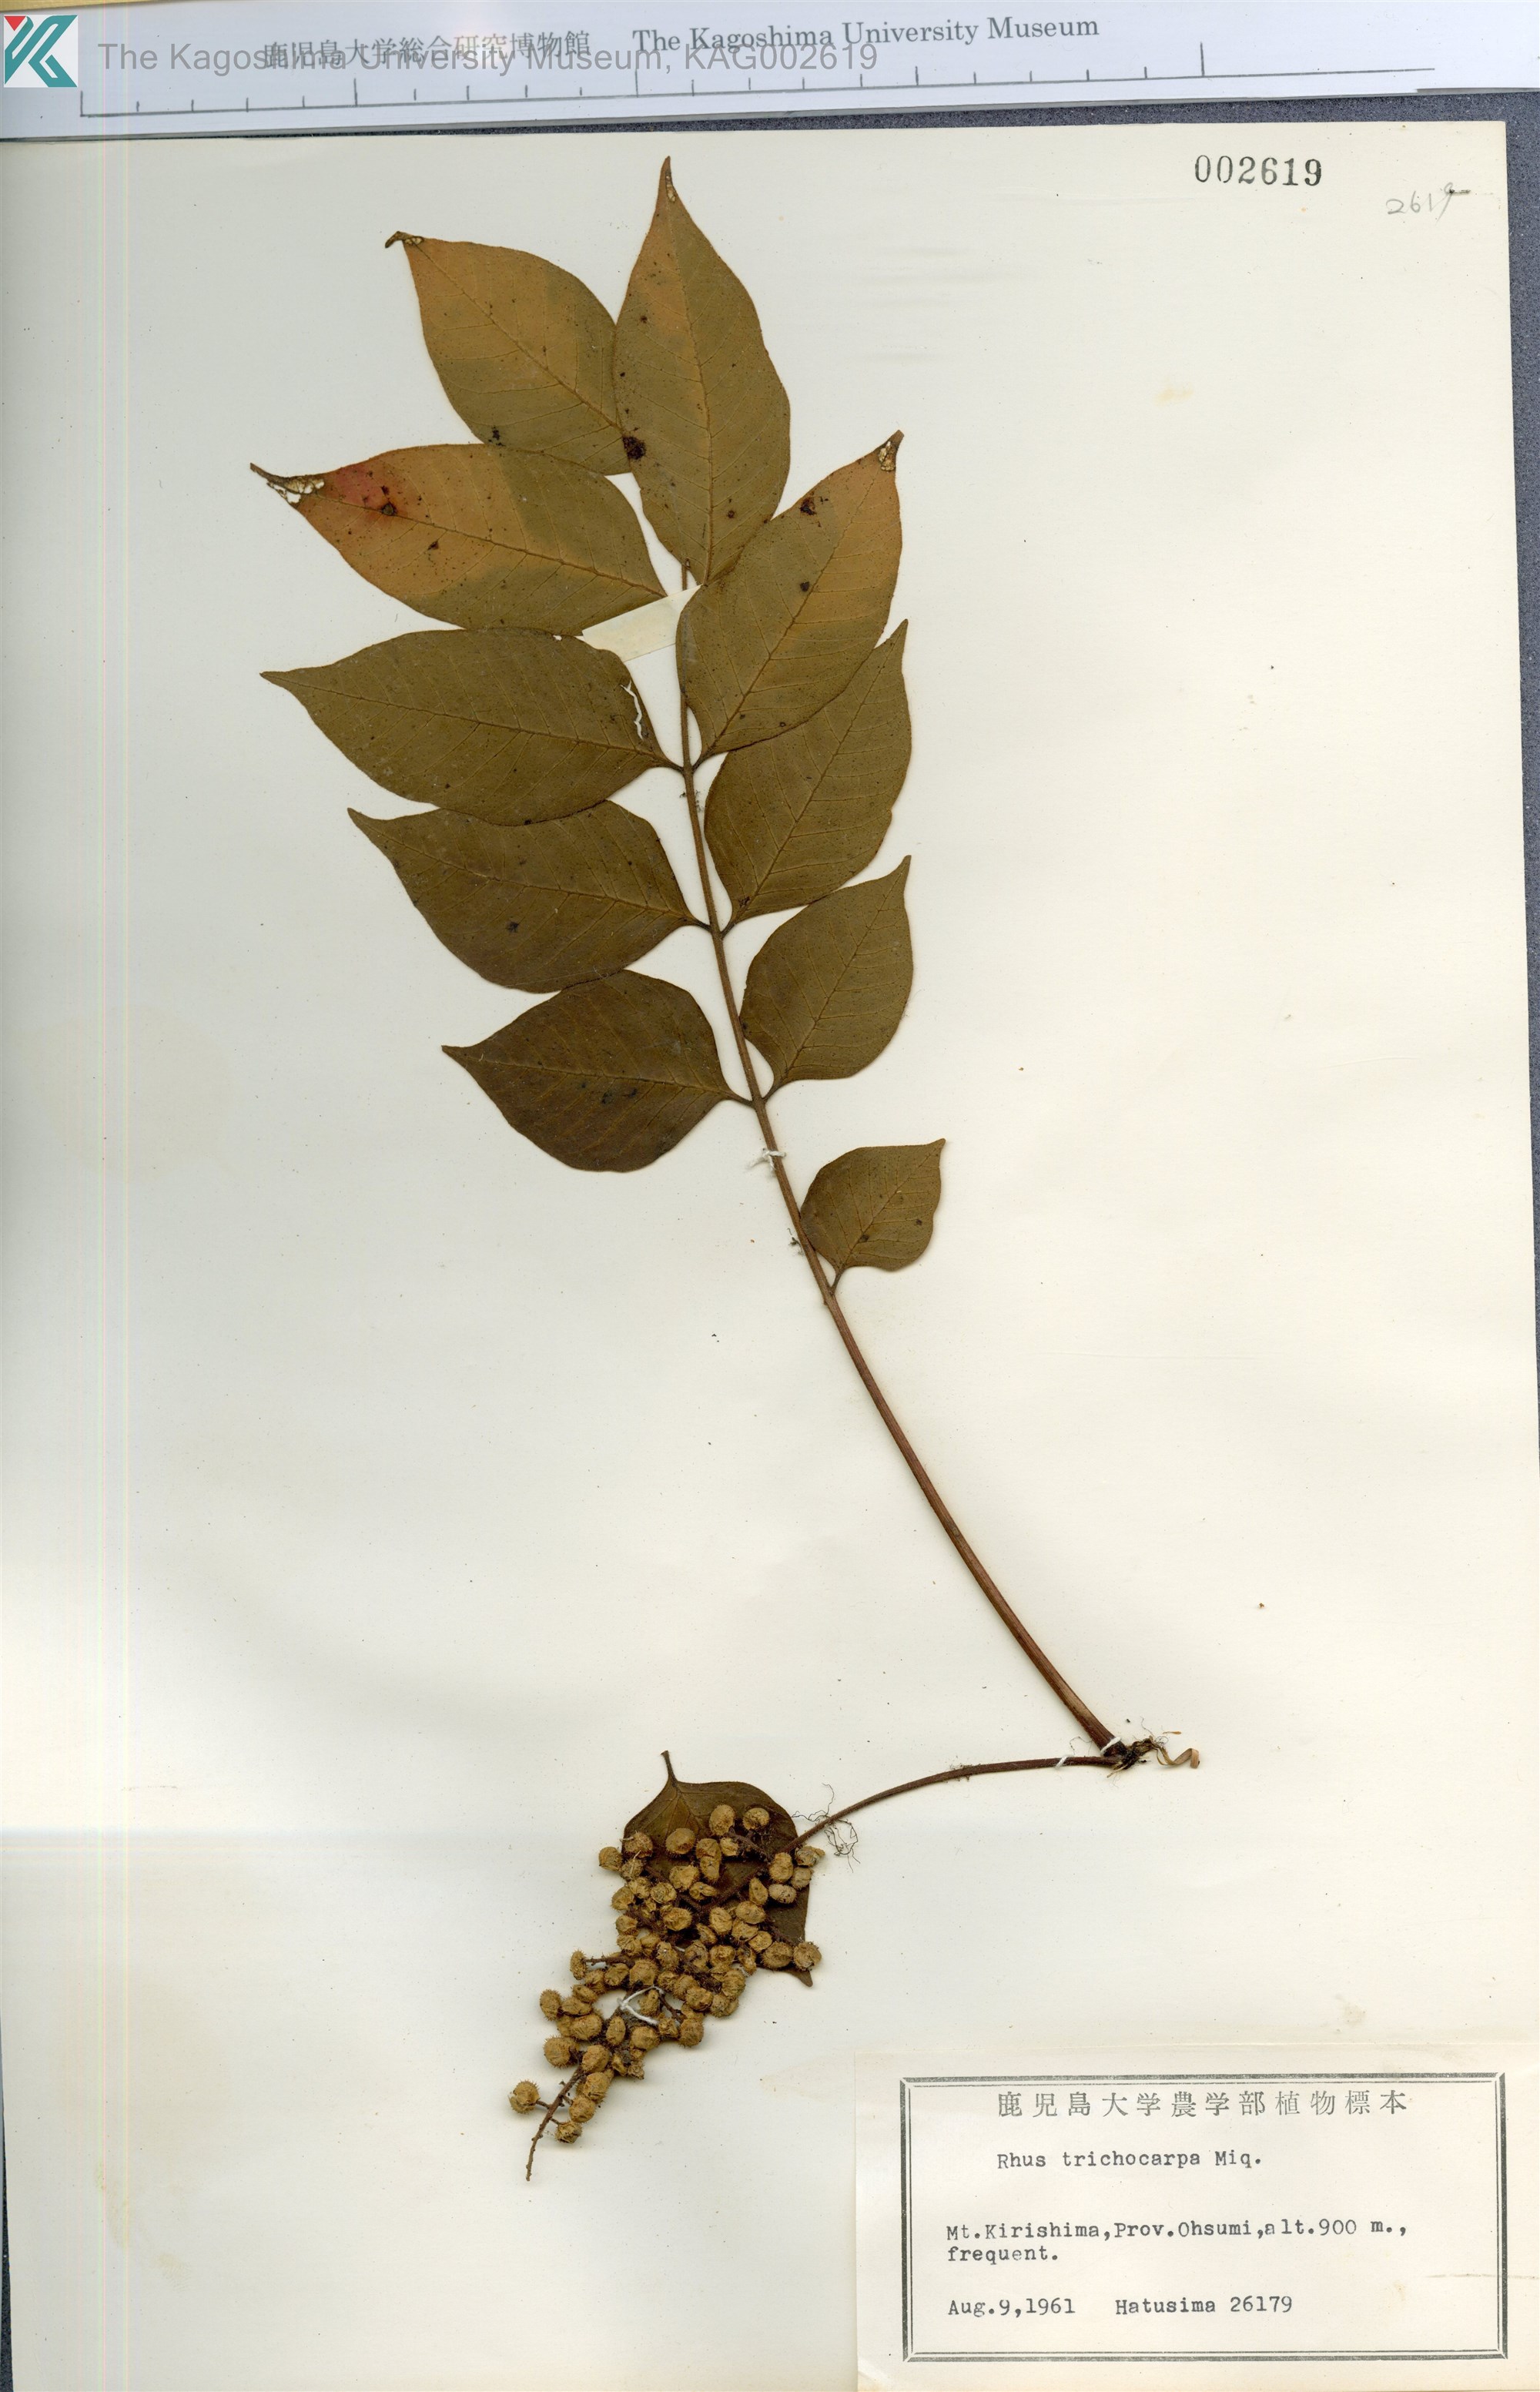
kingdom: Plantae
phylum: Tracheophyta
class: Magnoliopsida
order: Sapindales
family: Anacardiaceae
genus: Toxicodendron
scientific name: Toxicodendron trichocarpum
